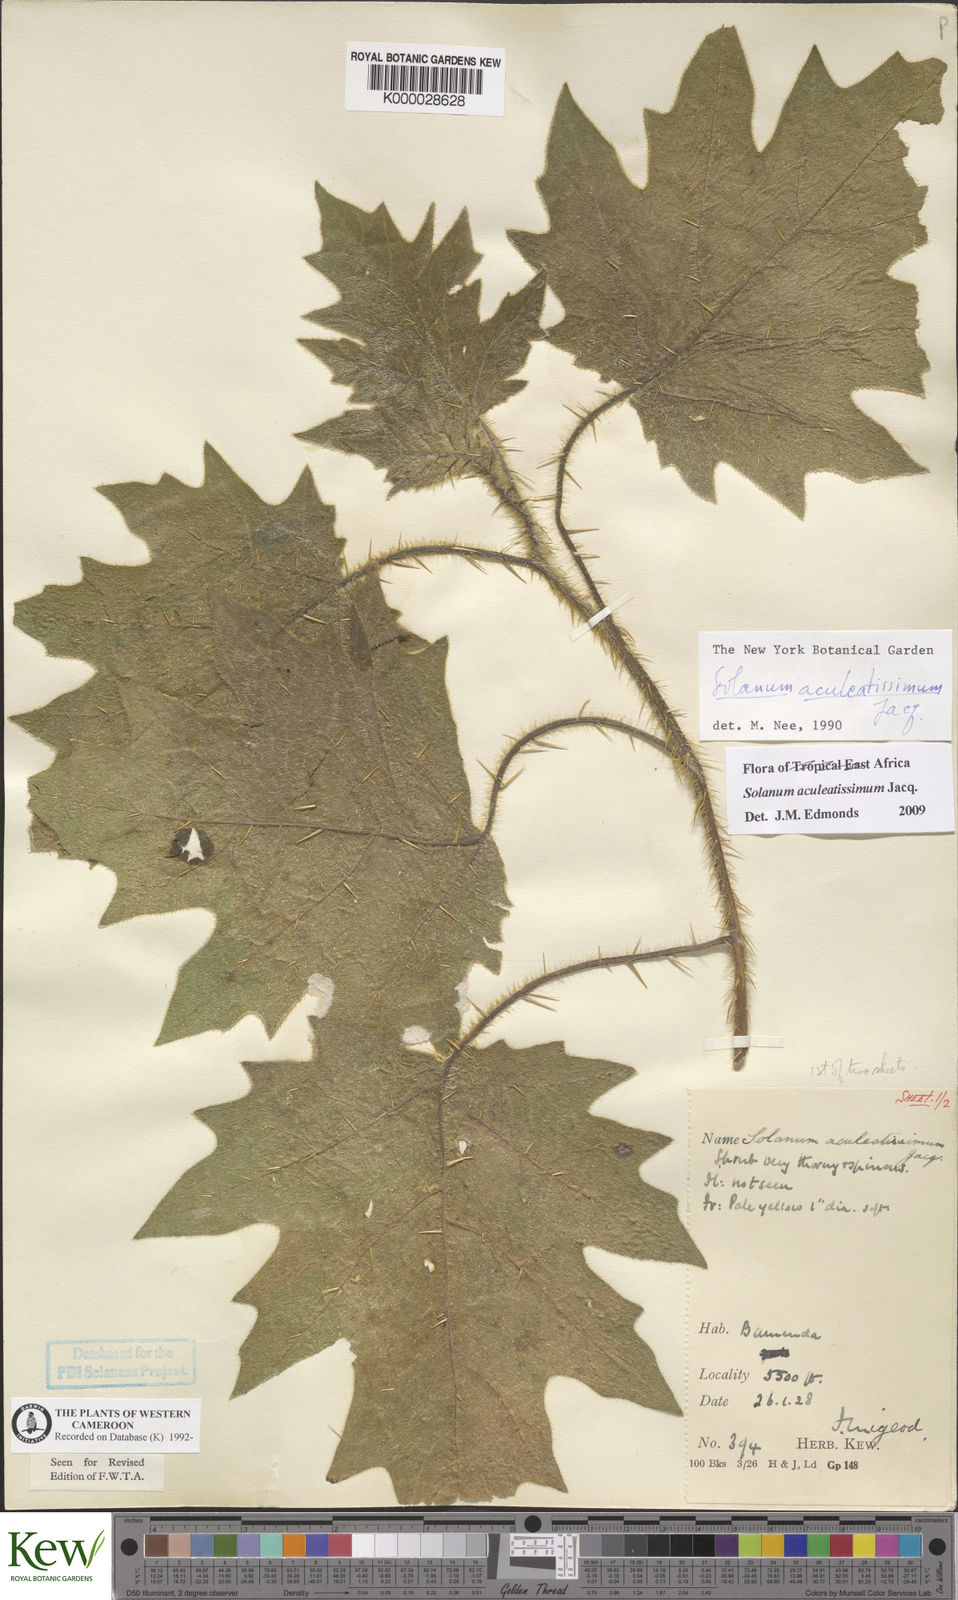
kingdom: Plantae
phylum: Tracheophyta
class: Magnoliopsida
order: Solanales
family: Solanaceae
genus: Solanum
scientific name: Solanum aculeatissimum
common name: Dutch eggplant
